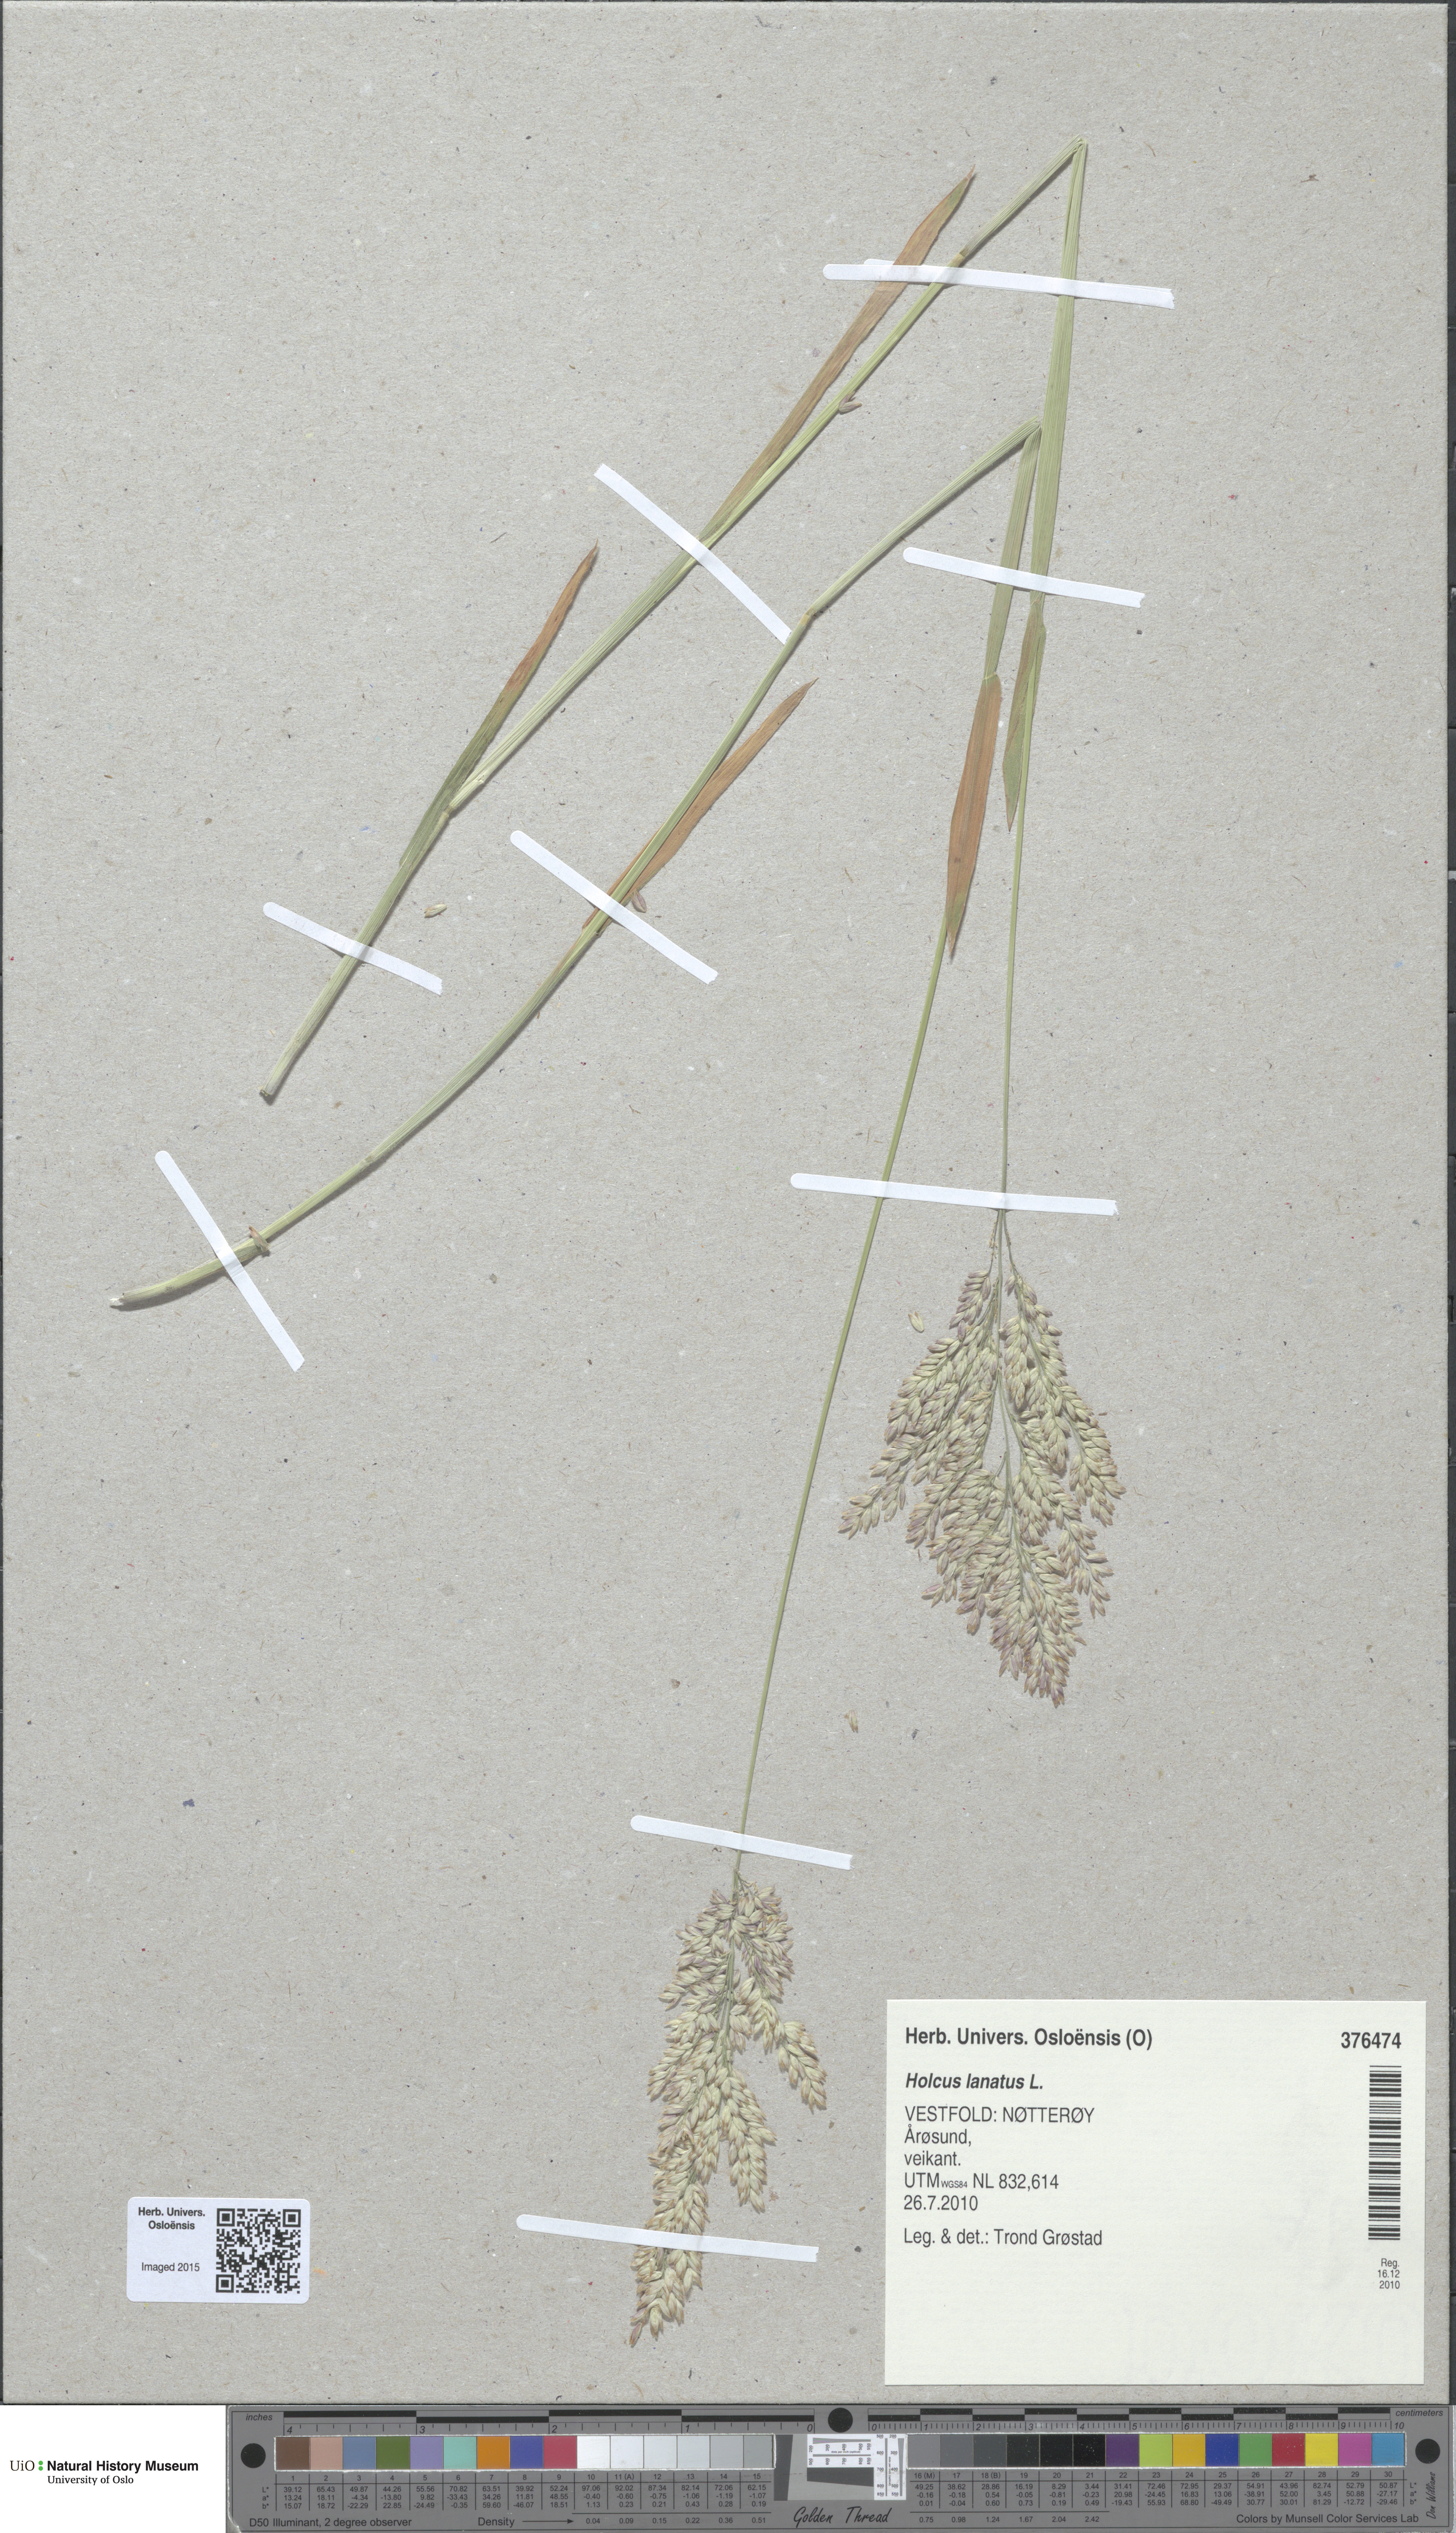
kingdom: Plantae
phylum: Tracheophyta
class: Liliopsida
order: Poales
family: Poaceae
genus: Holcus
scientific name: Holcus lanatus
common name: Yorkshire-fog
